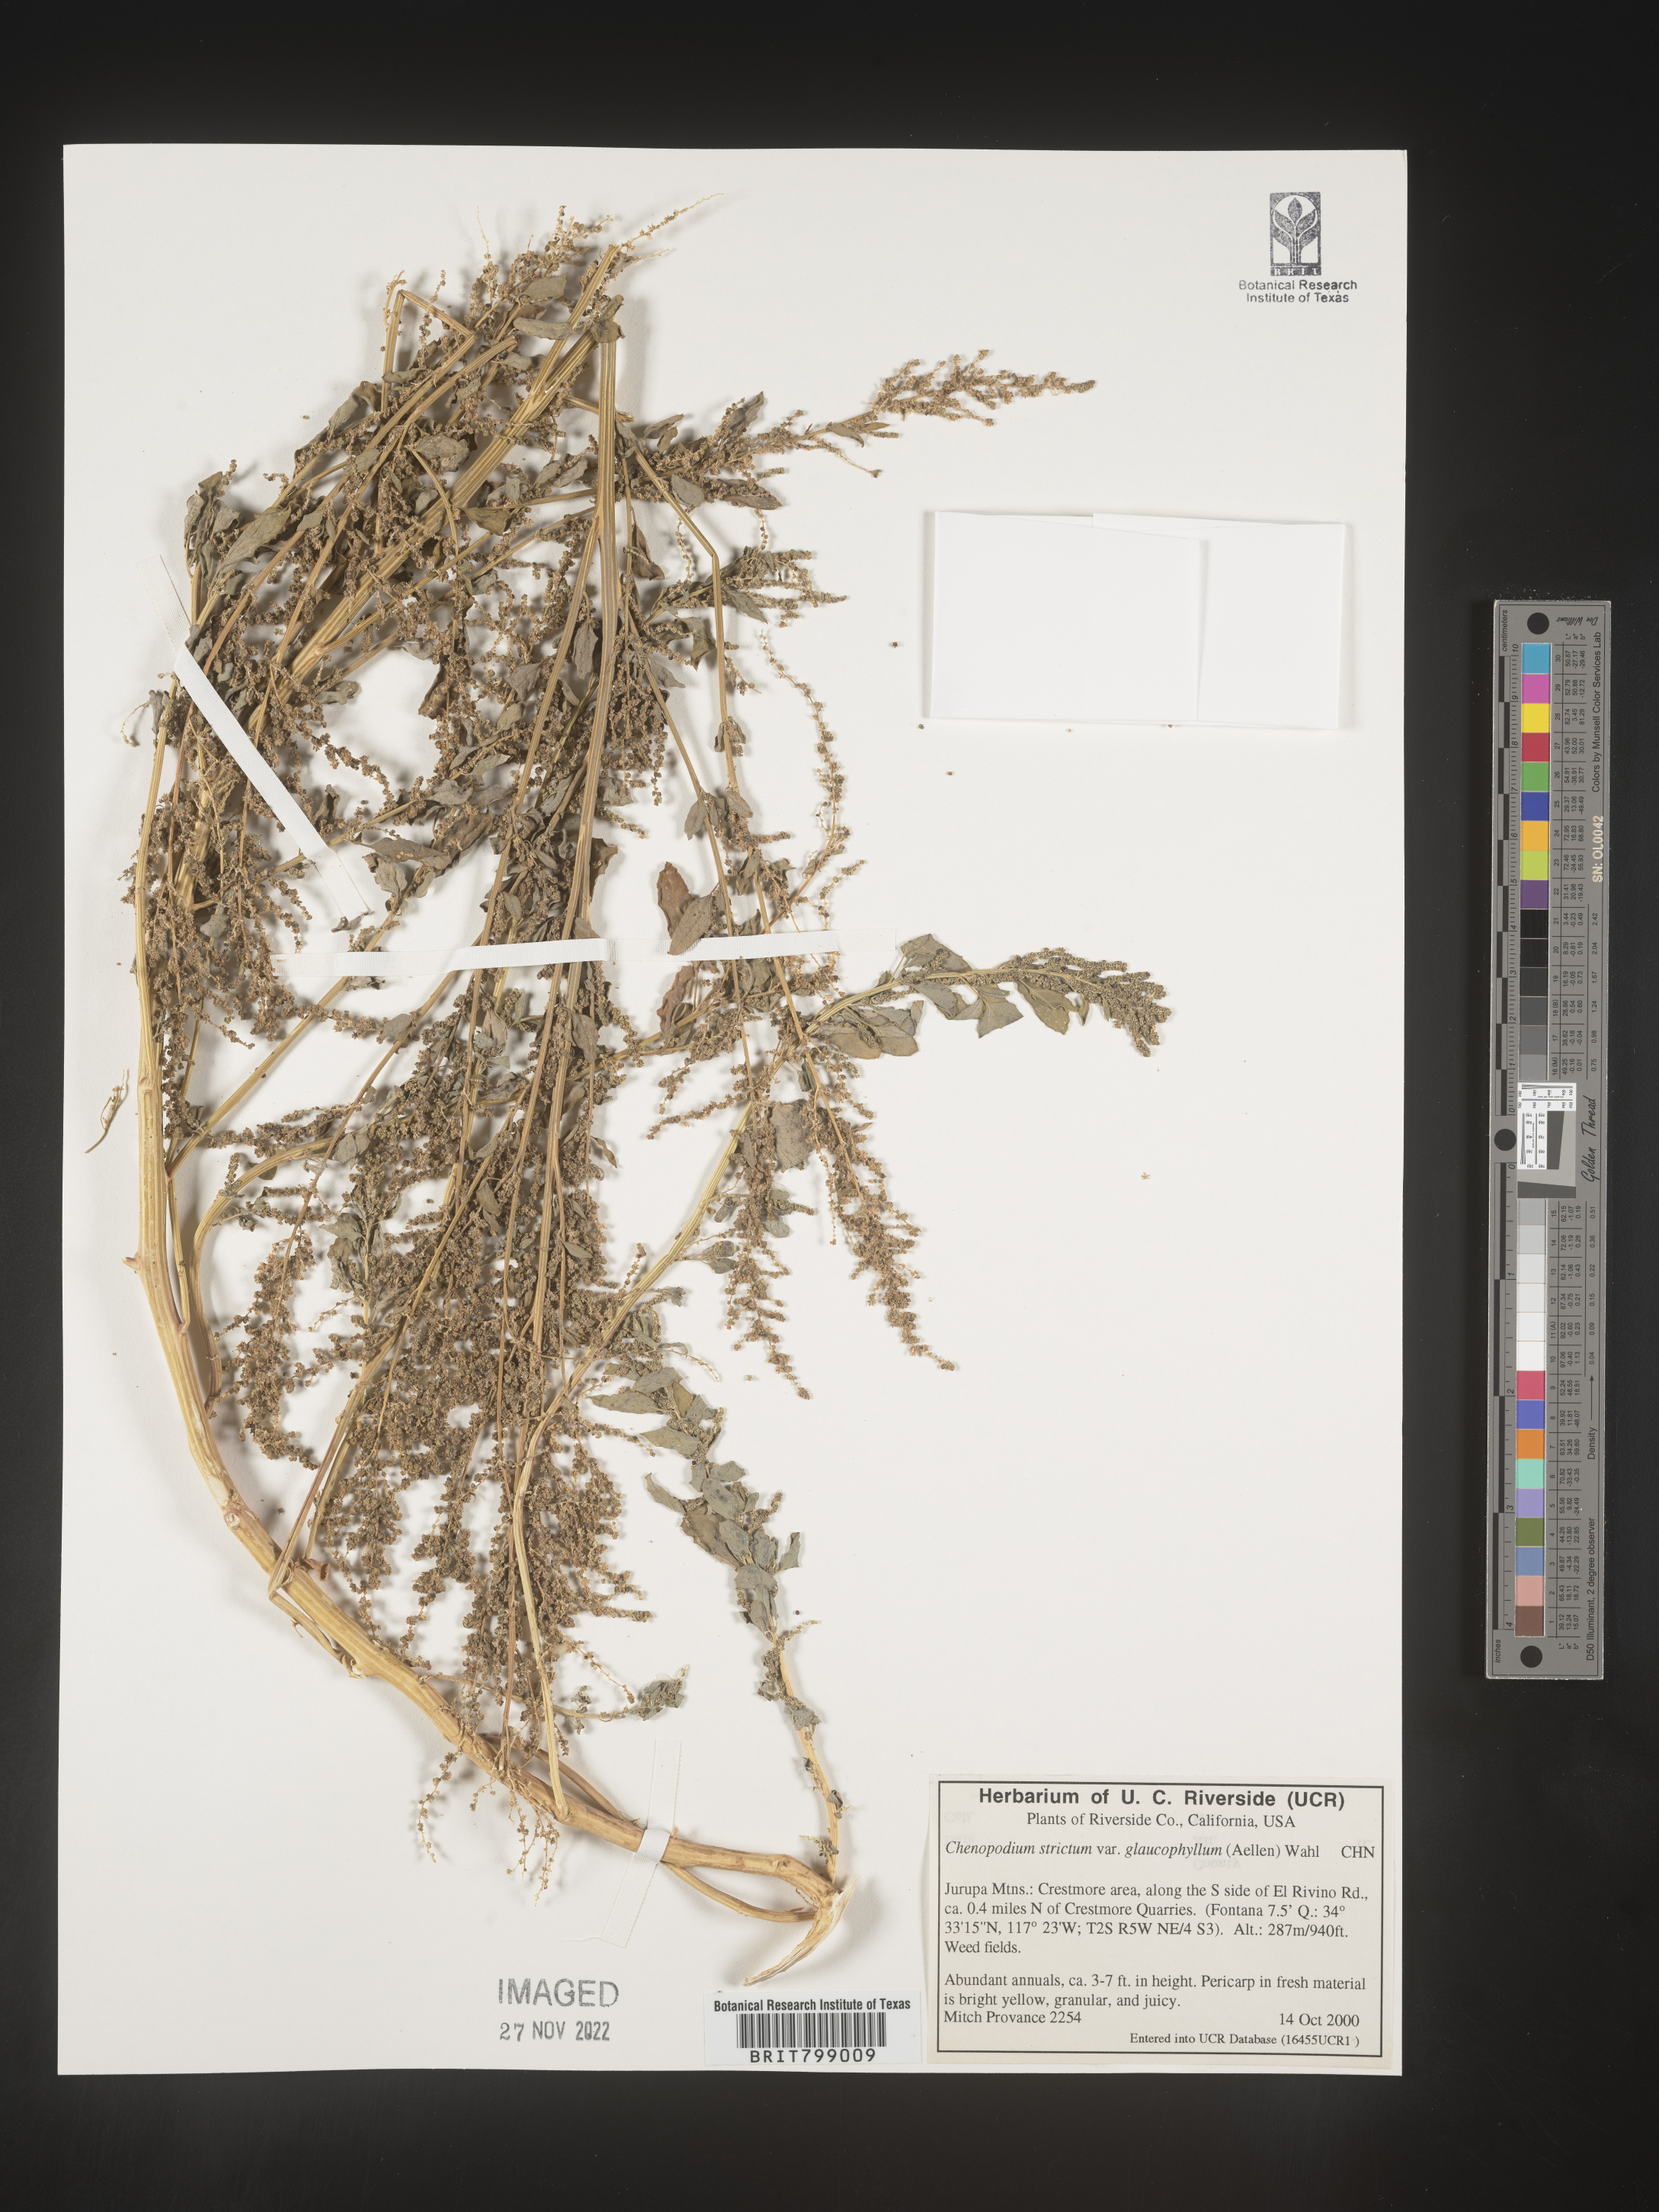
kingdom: Plantae
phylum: Tracheophyta
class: Magnoliopsida
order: Caryophyllales
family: Amaranthaceae
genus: Chenopodium
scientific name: Chenopodium album
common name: Fat-hen
